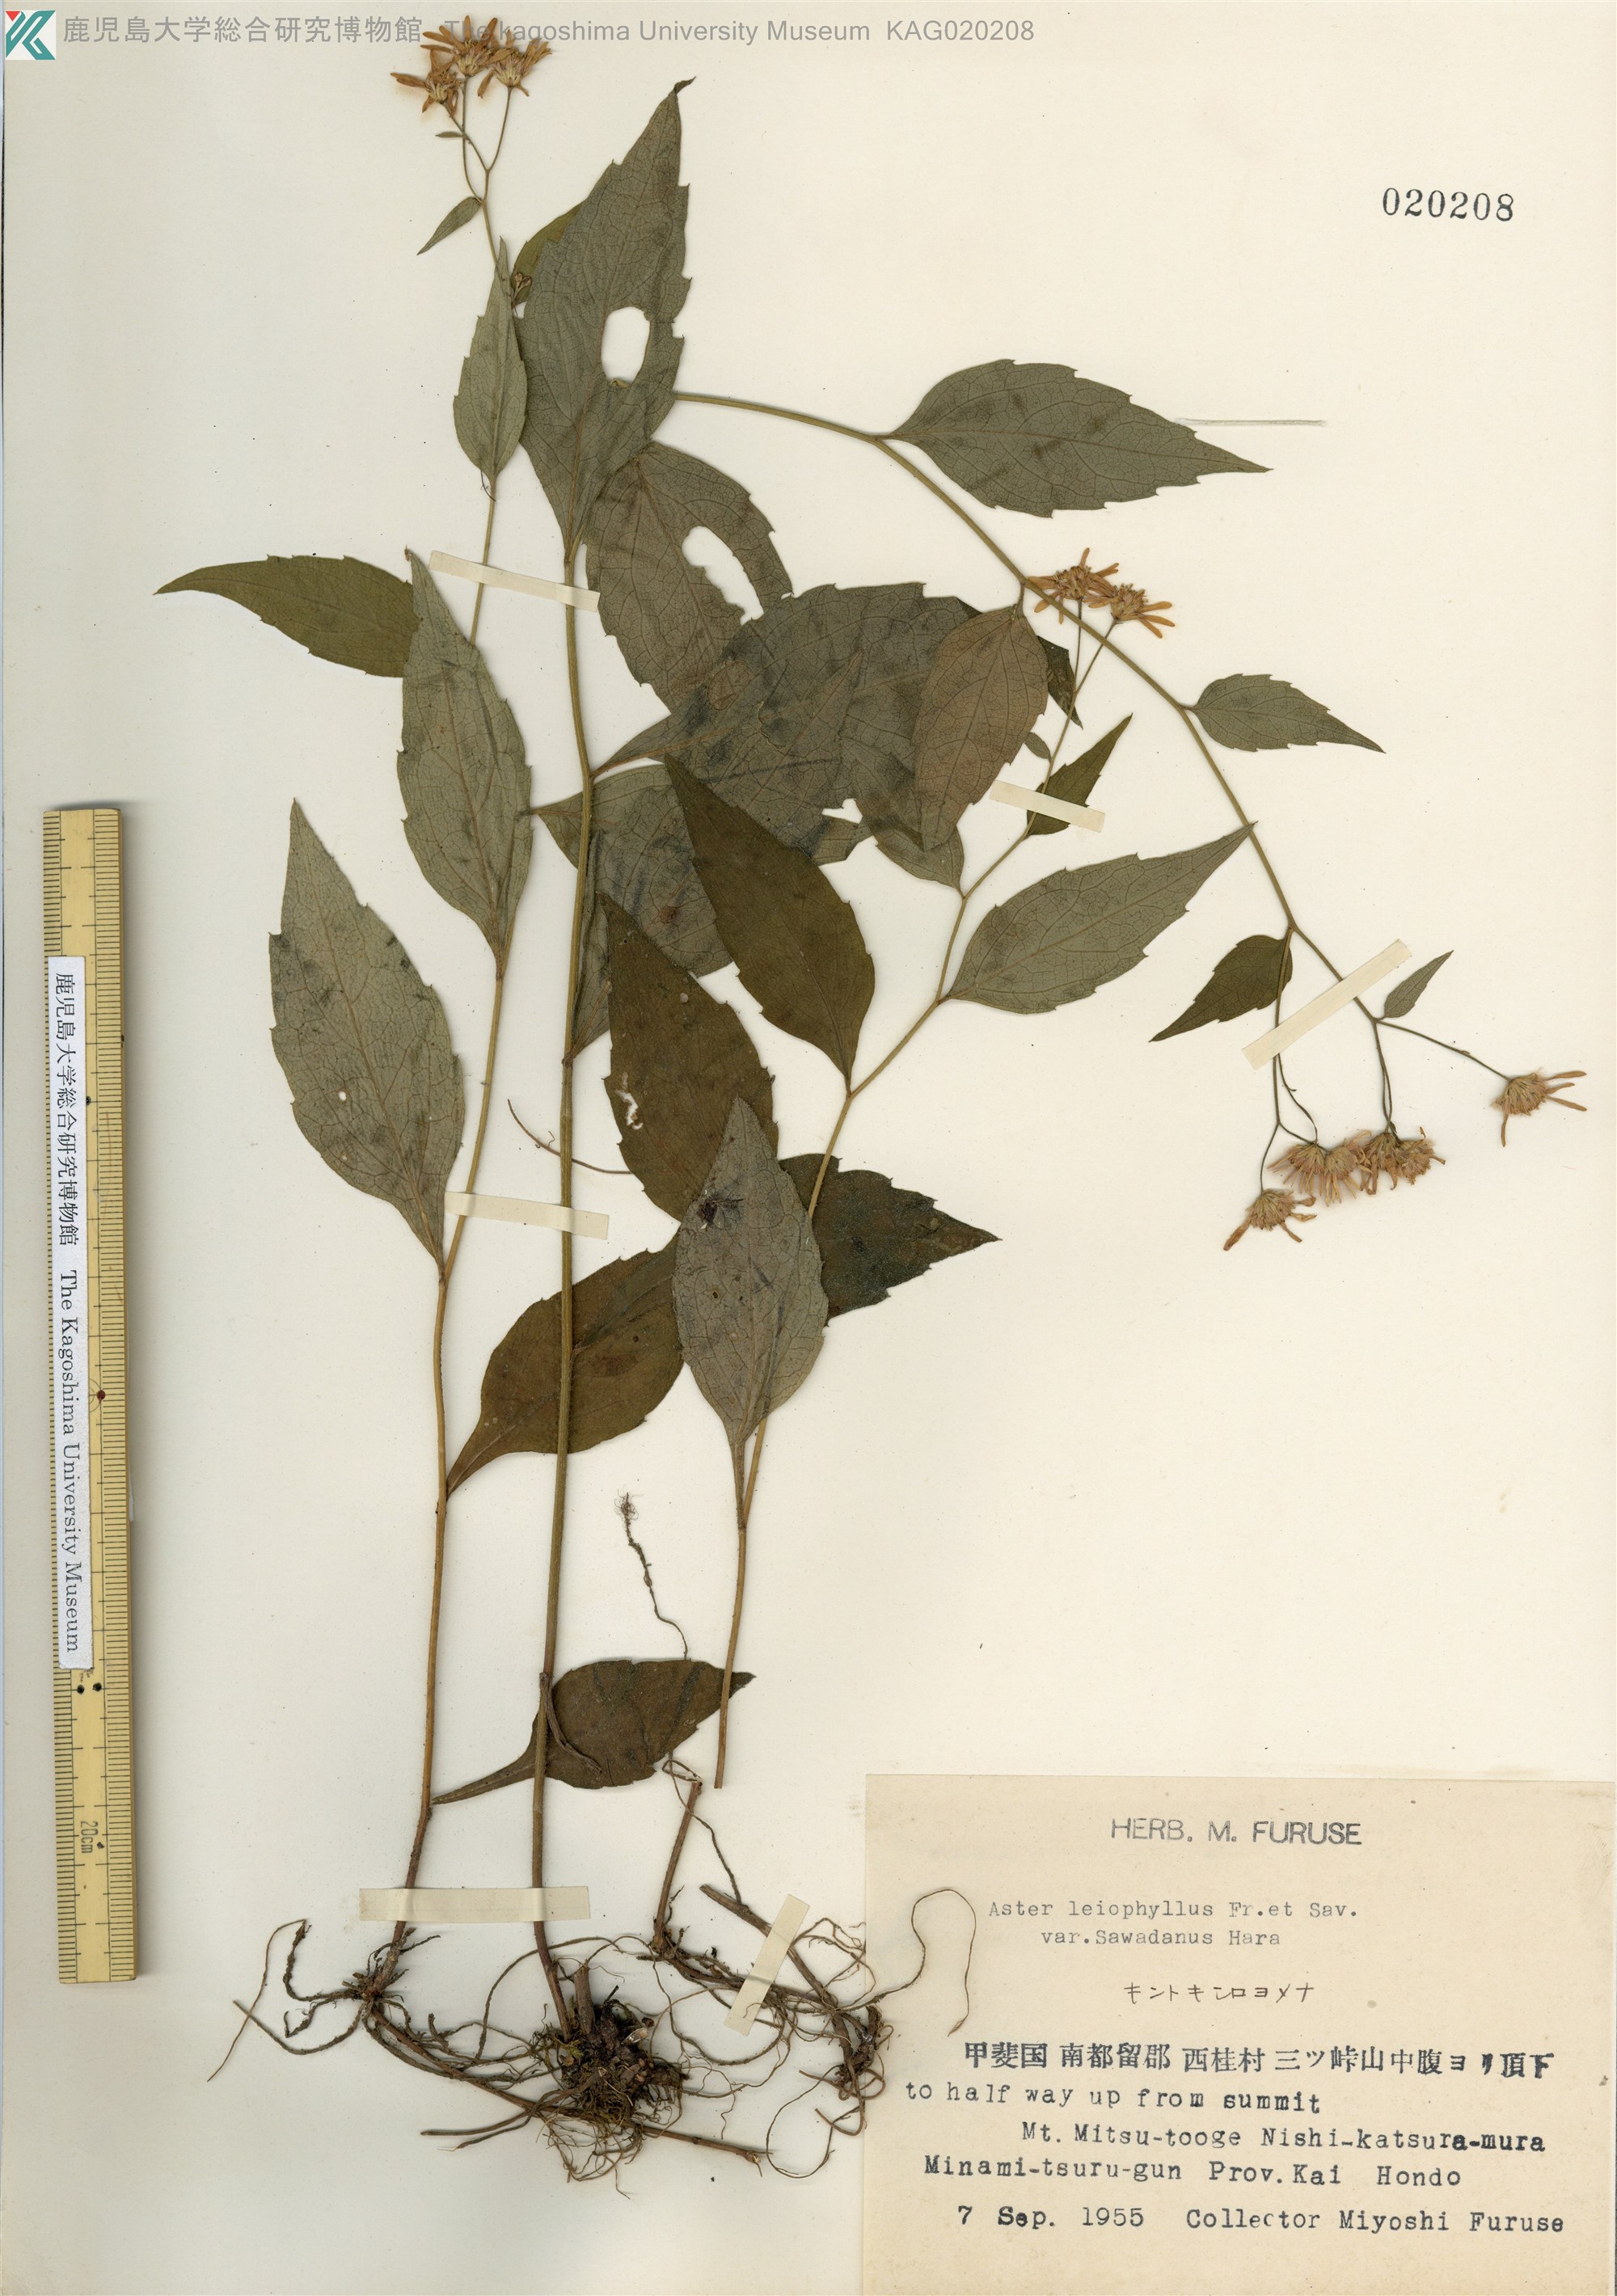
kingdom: Plantae
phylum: Tracheophyta
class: Magnoliopsida
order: Asterales
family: Asteraceae
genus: Aster
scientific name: Aster ageratoides
